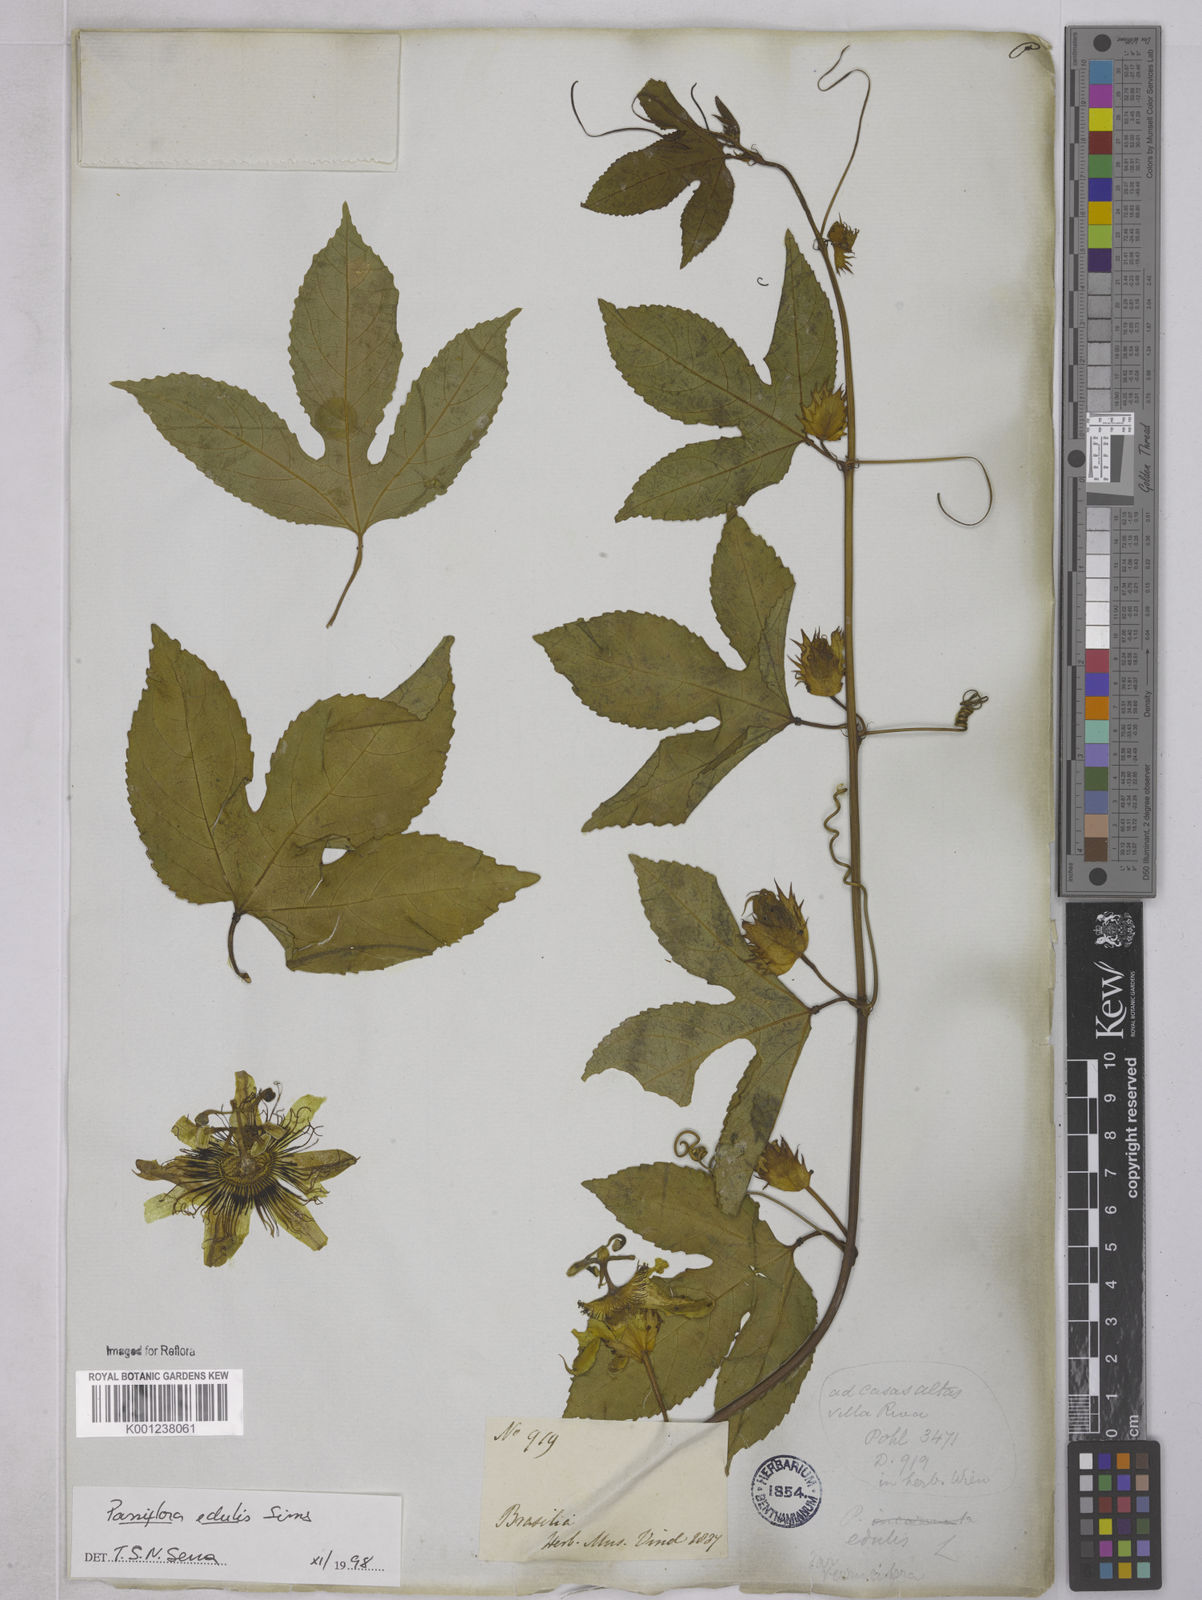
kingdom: Plantae
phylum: Tracheophyta
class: Magnoliopsida
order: Malpighiales
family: Passifloraceae
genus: Passiflora
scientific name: Passiflora edulis
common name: Purple granadilla
